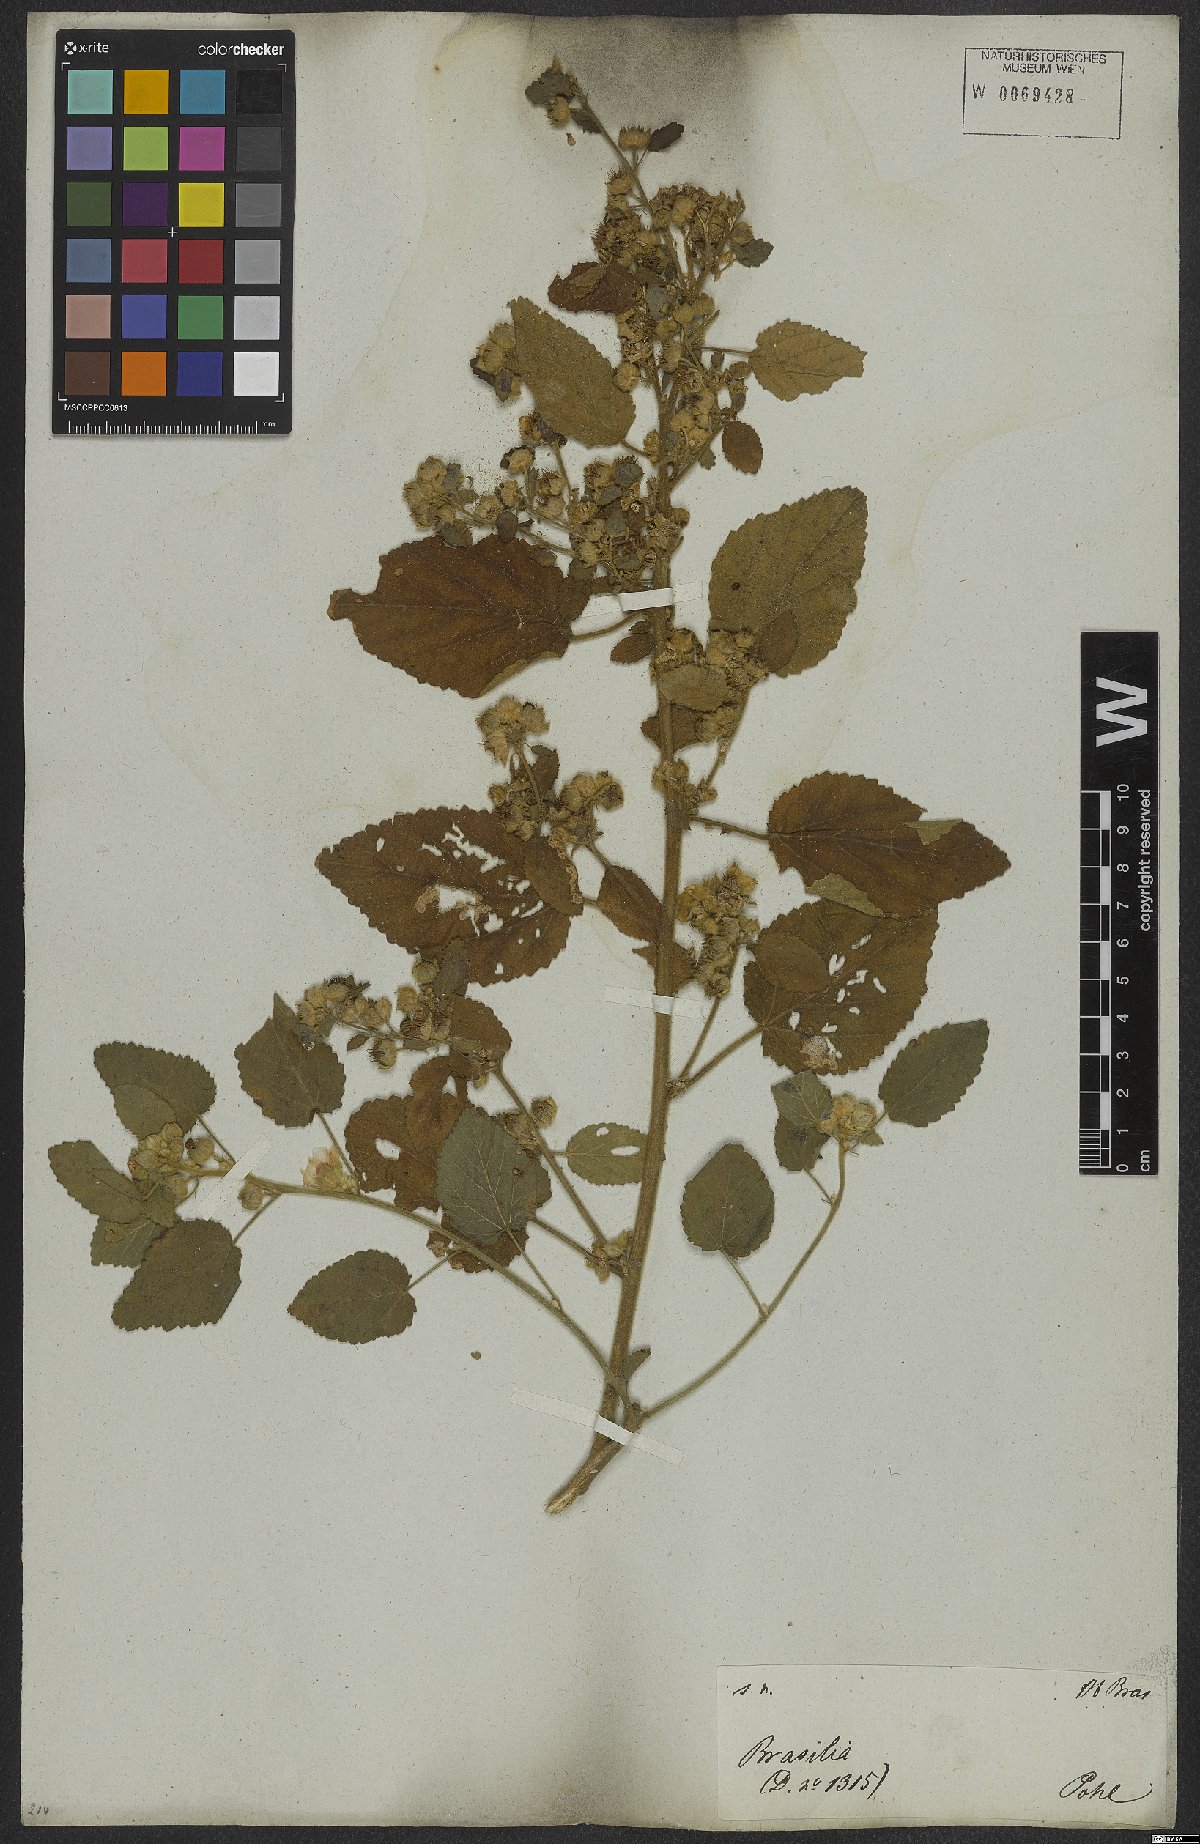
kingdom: Plantae
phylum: Tracheophyta
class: Magnoliopsida
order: Malvales
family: Malvaceae
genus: Sida
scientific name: Sida cordifolia
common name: Ilima
